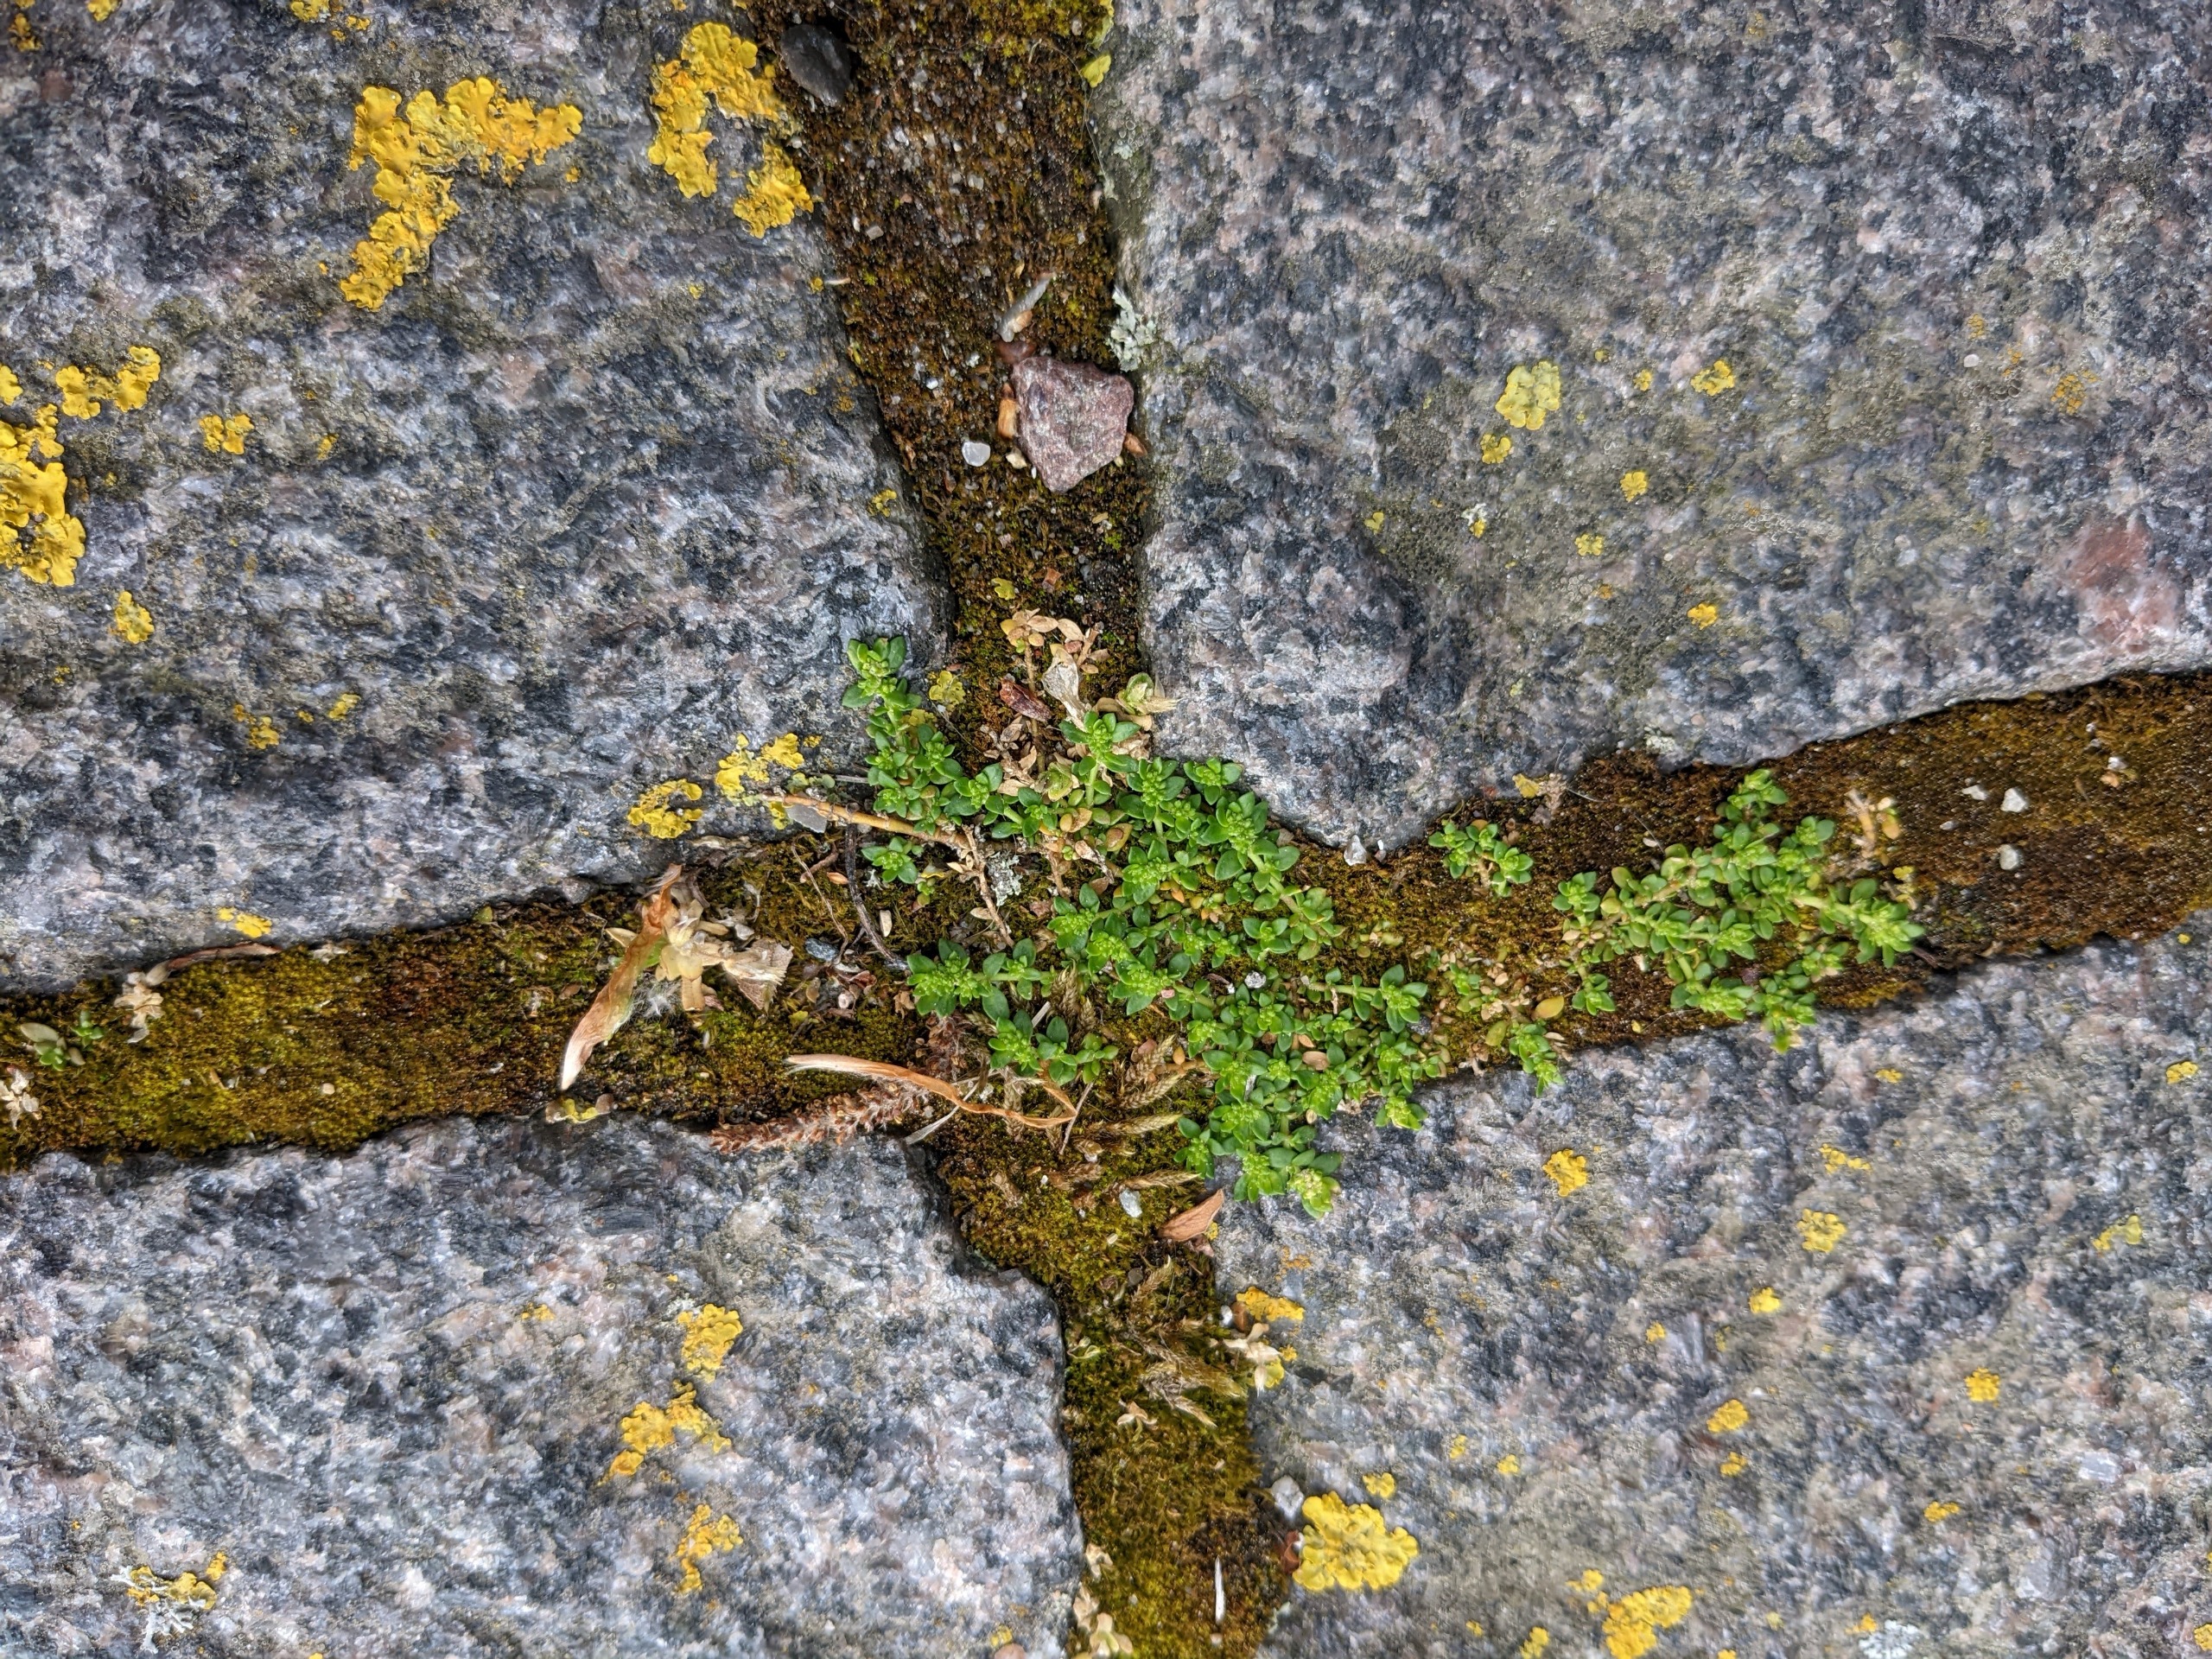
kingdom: Plantae
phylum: Tracheophyta
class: Magnoliopsida
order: Caryophyllales
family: Caryophyllaceae
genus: Herniaria
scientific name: Herniaria glabra
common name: Brudurt
